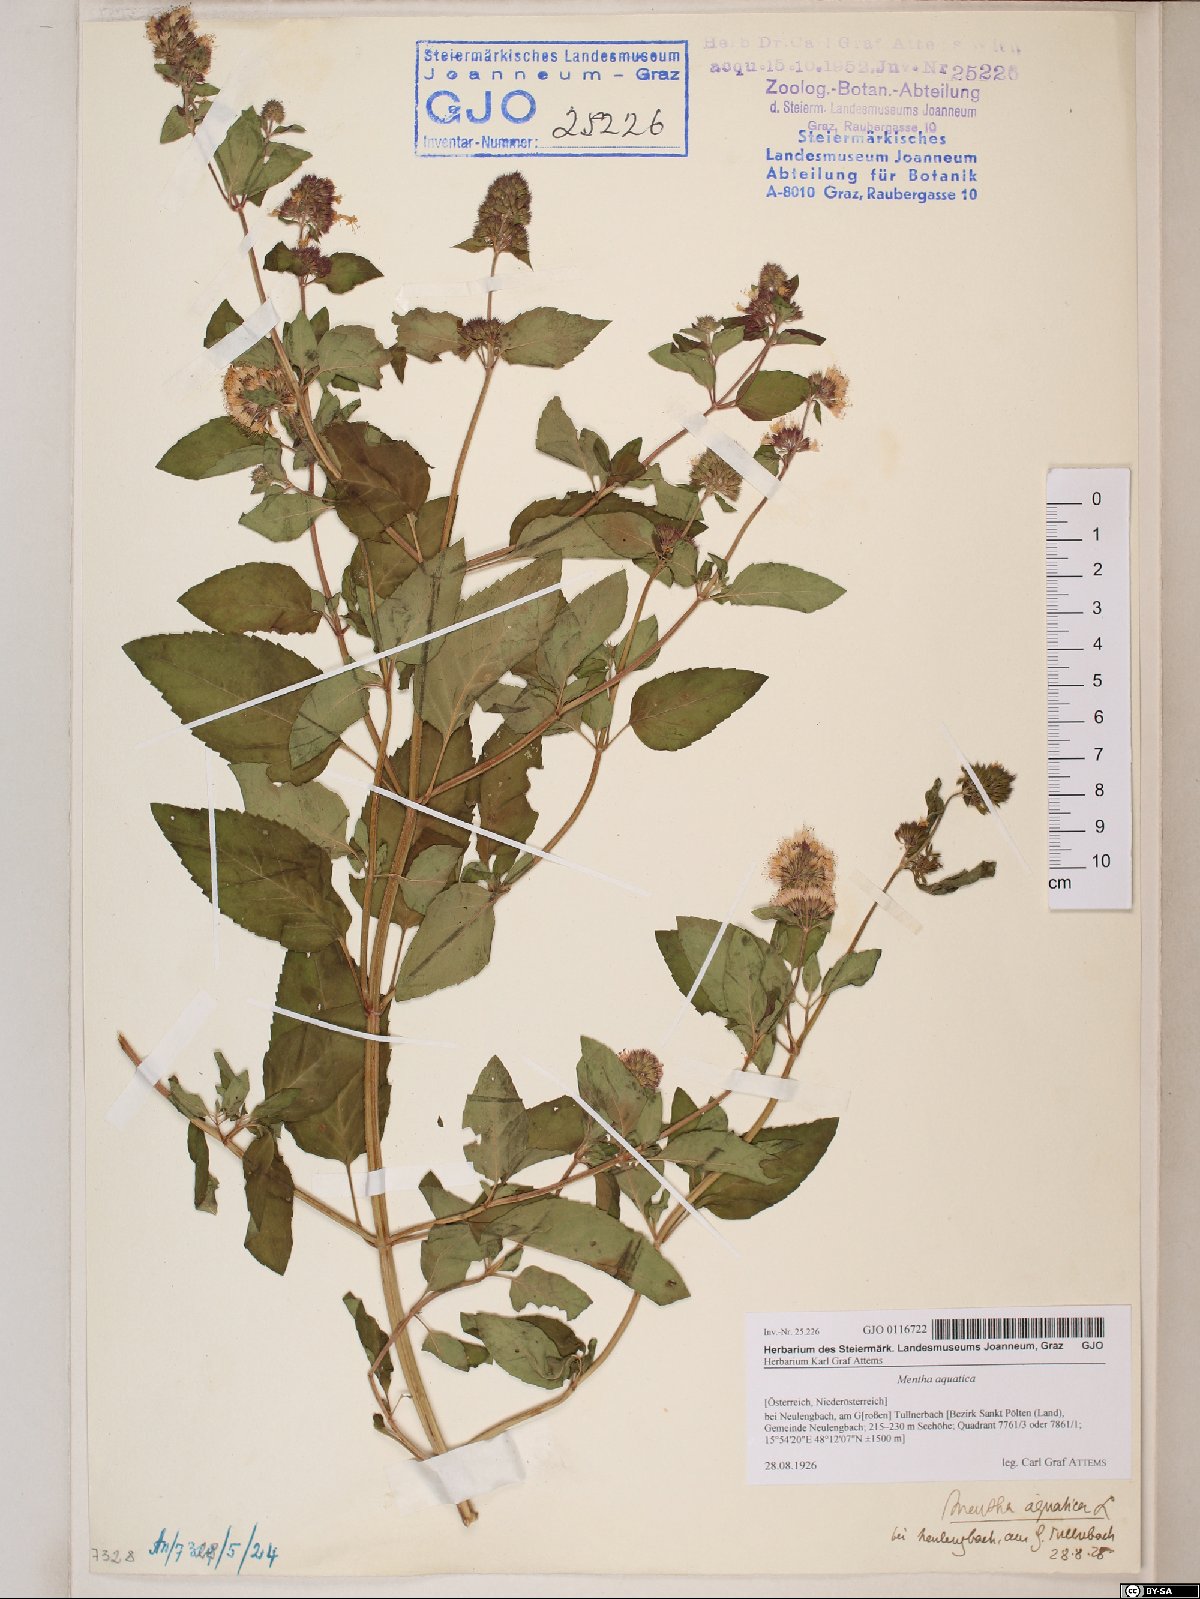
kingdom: Plantae
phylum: Tracheophyta
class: Magnoliopsida
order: Lamiales
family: Lamiaceae
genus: Mentha
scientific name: Mentha aquatica
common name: Water mint
